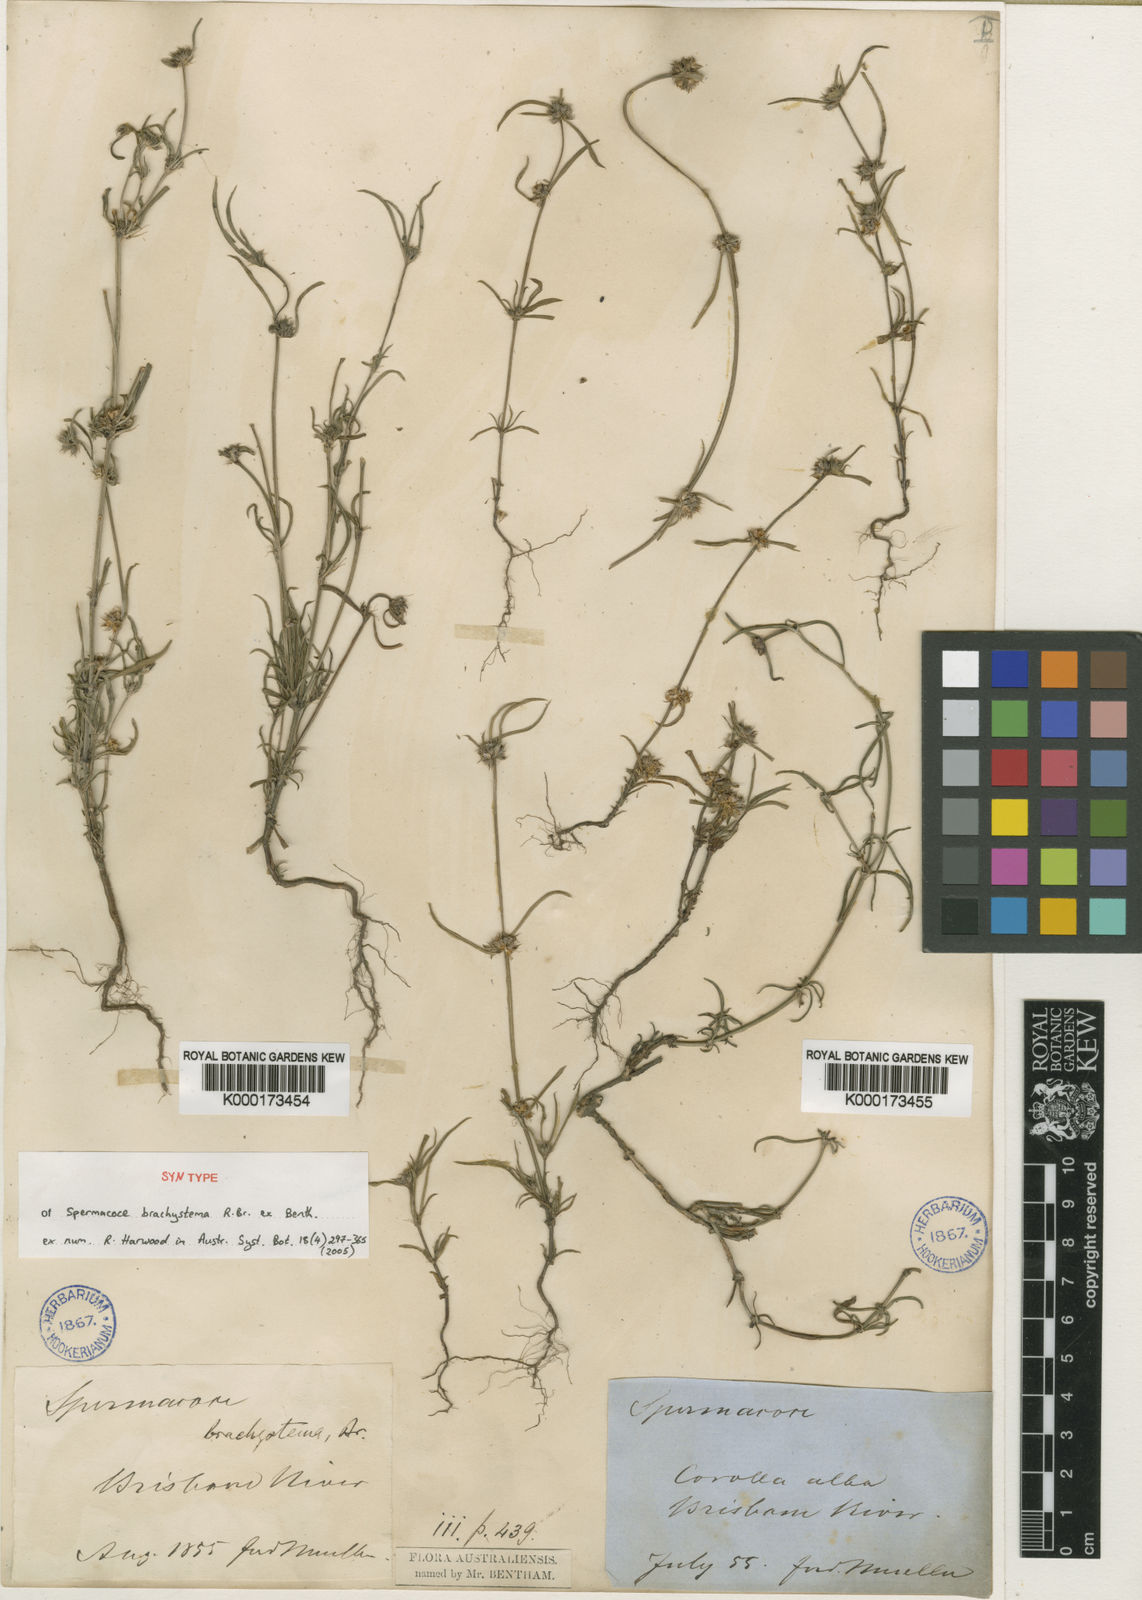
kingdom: Plantae
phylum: Tracheophyta
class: Magnoliopsida
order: Gentianales
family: Rubiaceae
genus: Spermacoce
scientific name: Spermacoce brachystema
